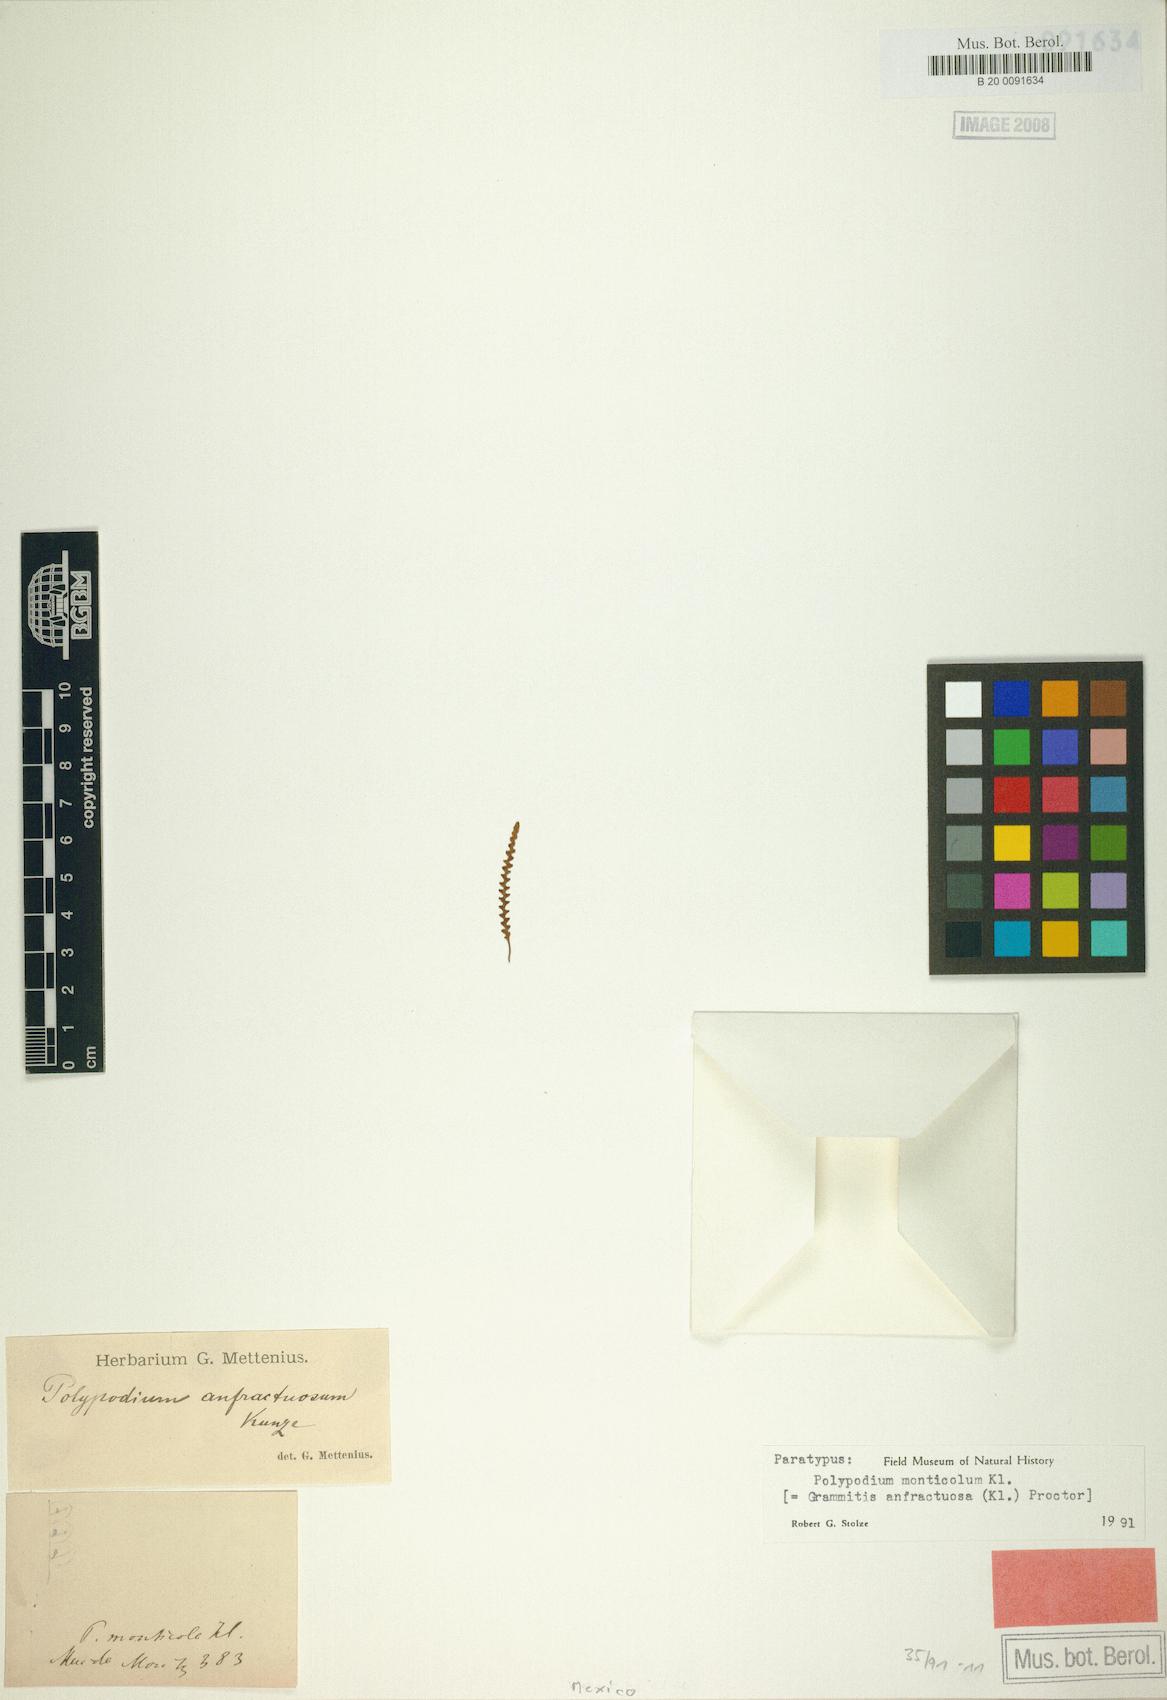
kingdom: Plantae
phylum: Tracheophyta
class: Polypodiopsida
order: Polypodiales
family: Polypodiaceae
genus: Ascogrammitis
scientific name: Ascogrammitis anfractuosa
